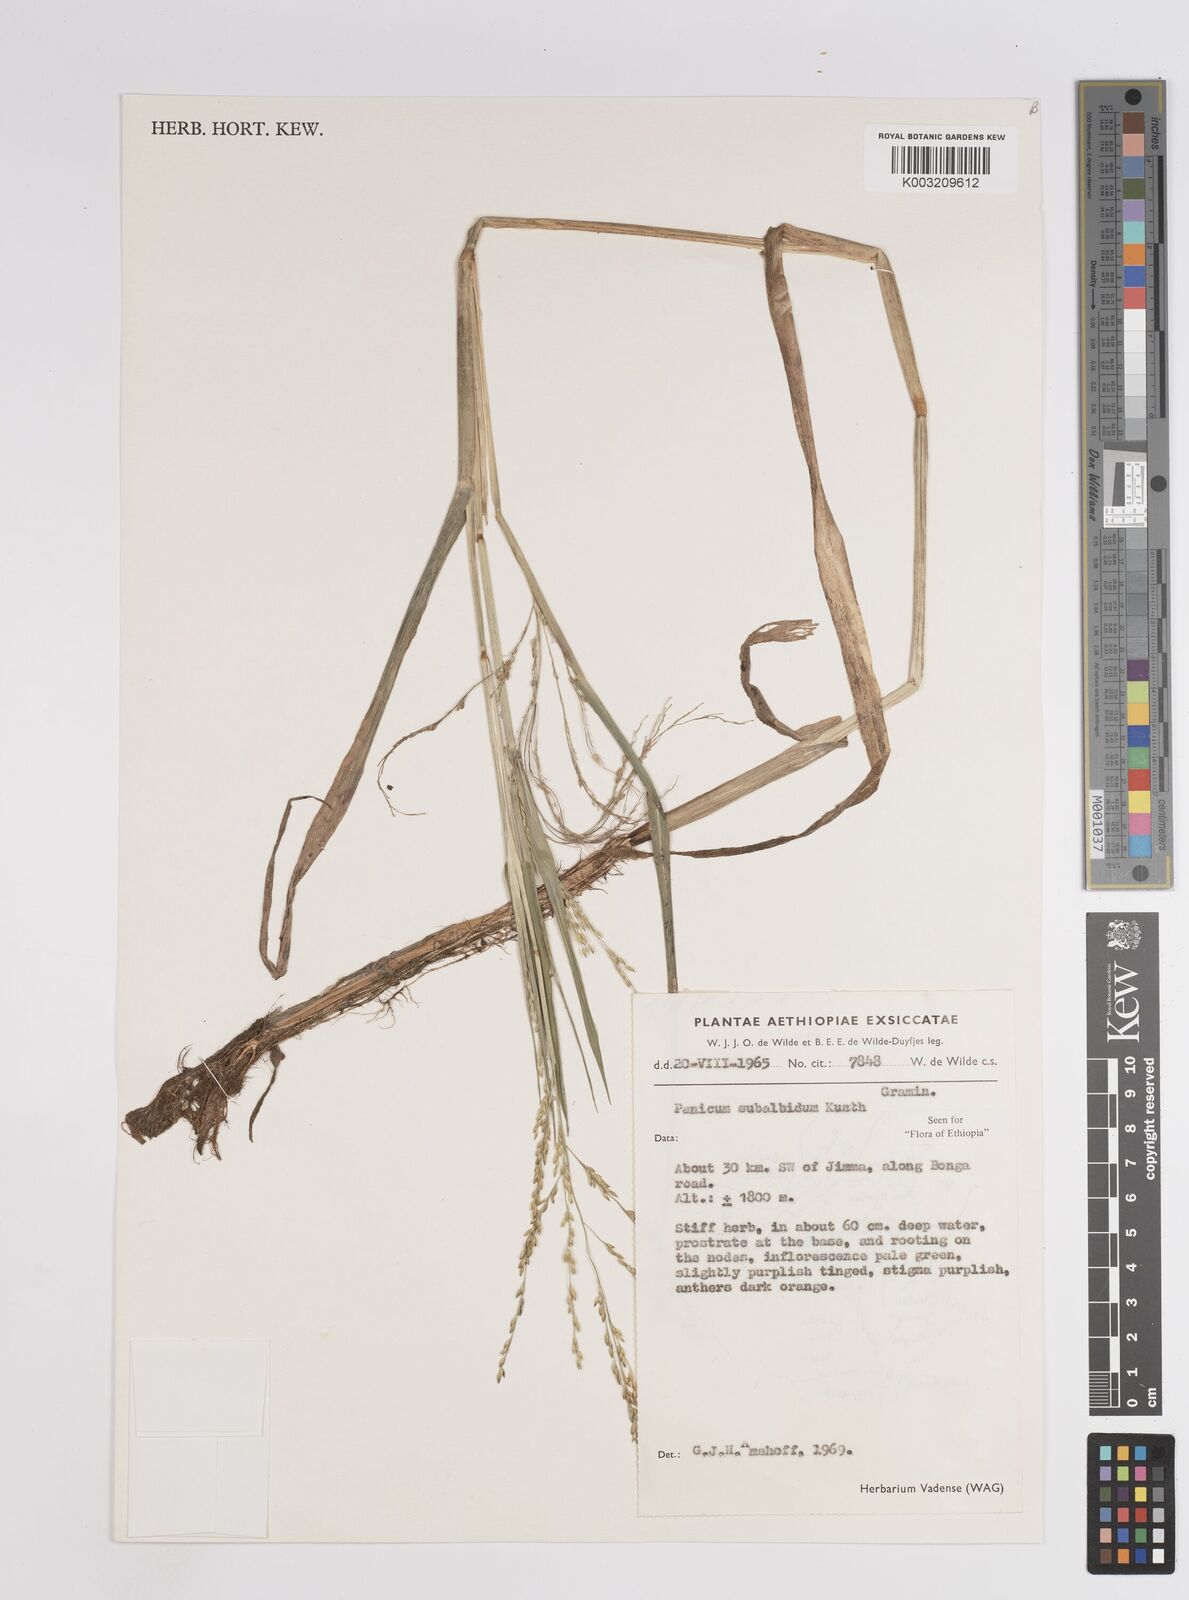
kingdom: Plantae
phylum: Tracheophyta
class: Liliopsida
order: Poales
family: Poaceae
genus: Panicum
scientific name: Panicum subalbidum
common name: Elbow buffalo grass
